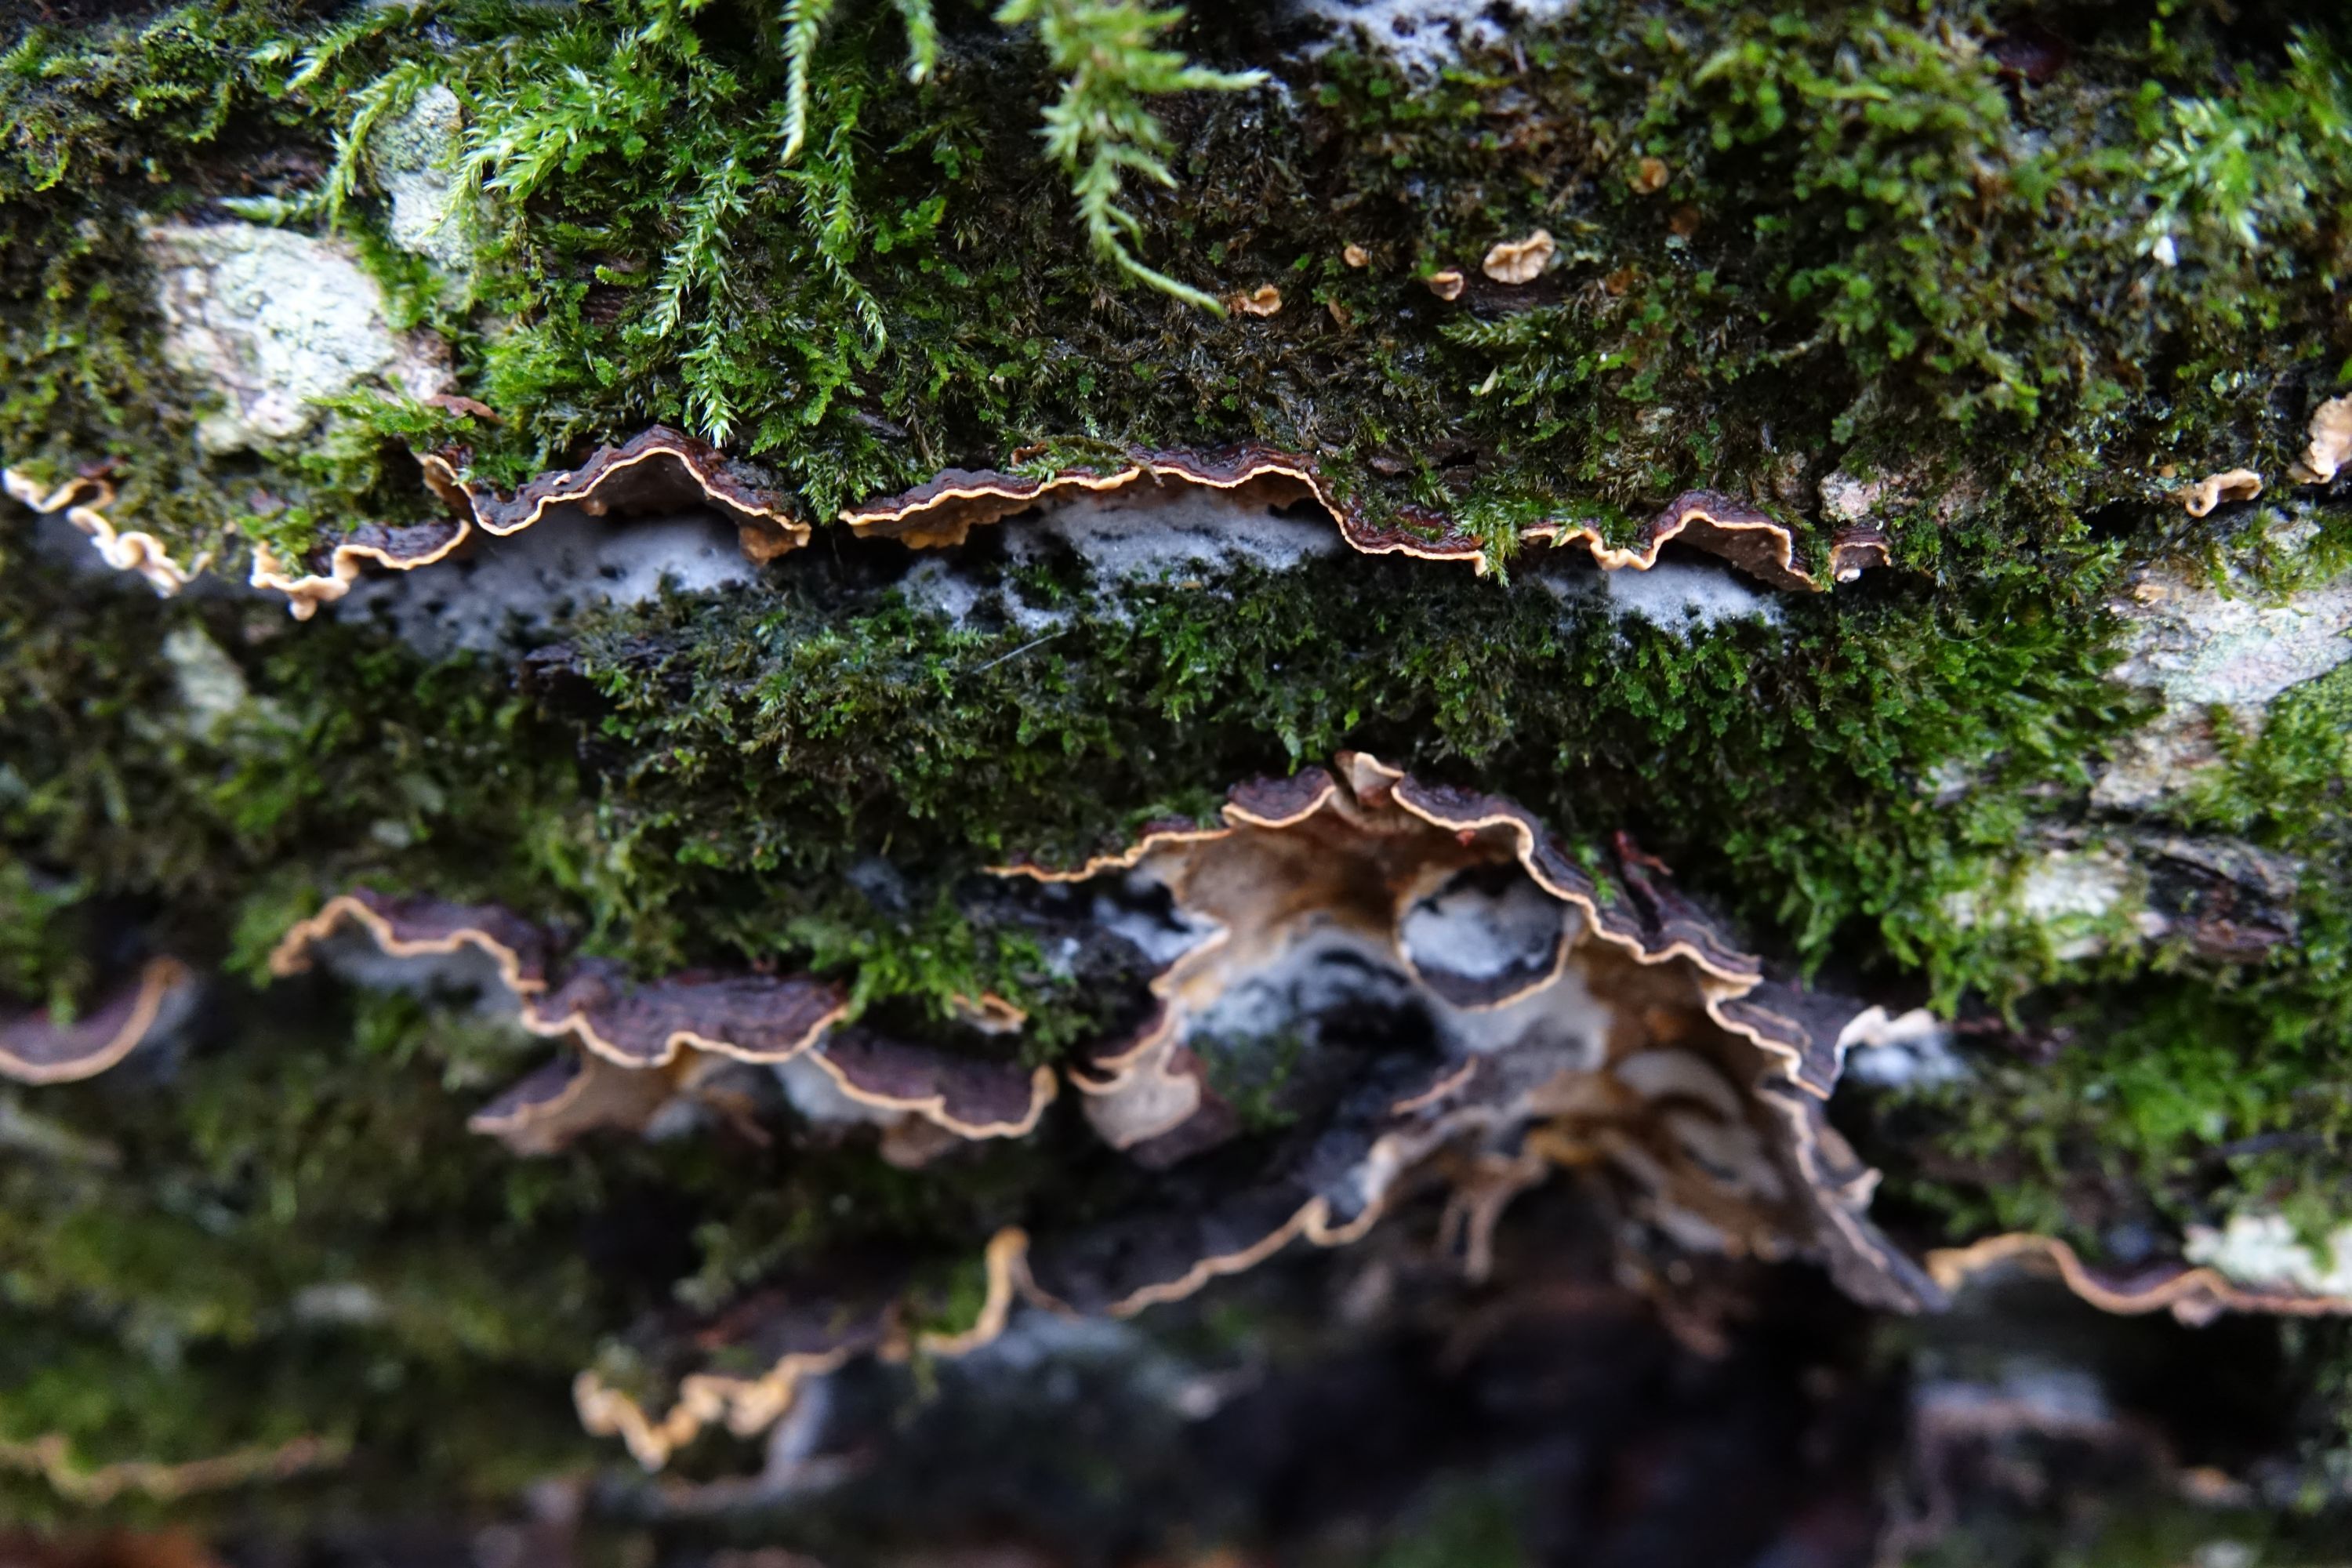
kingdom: Fungi
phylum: Basidiomycota
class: Agaricomycetes
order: Russulales
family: Stereaceae
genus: Stereum
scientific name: Stereum gausapatum
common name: Bleeding oak crust
